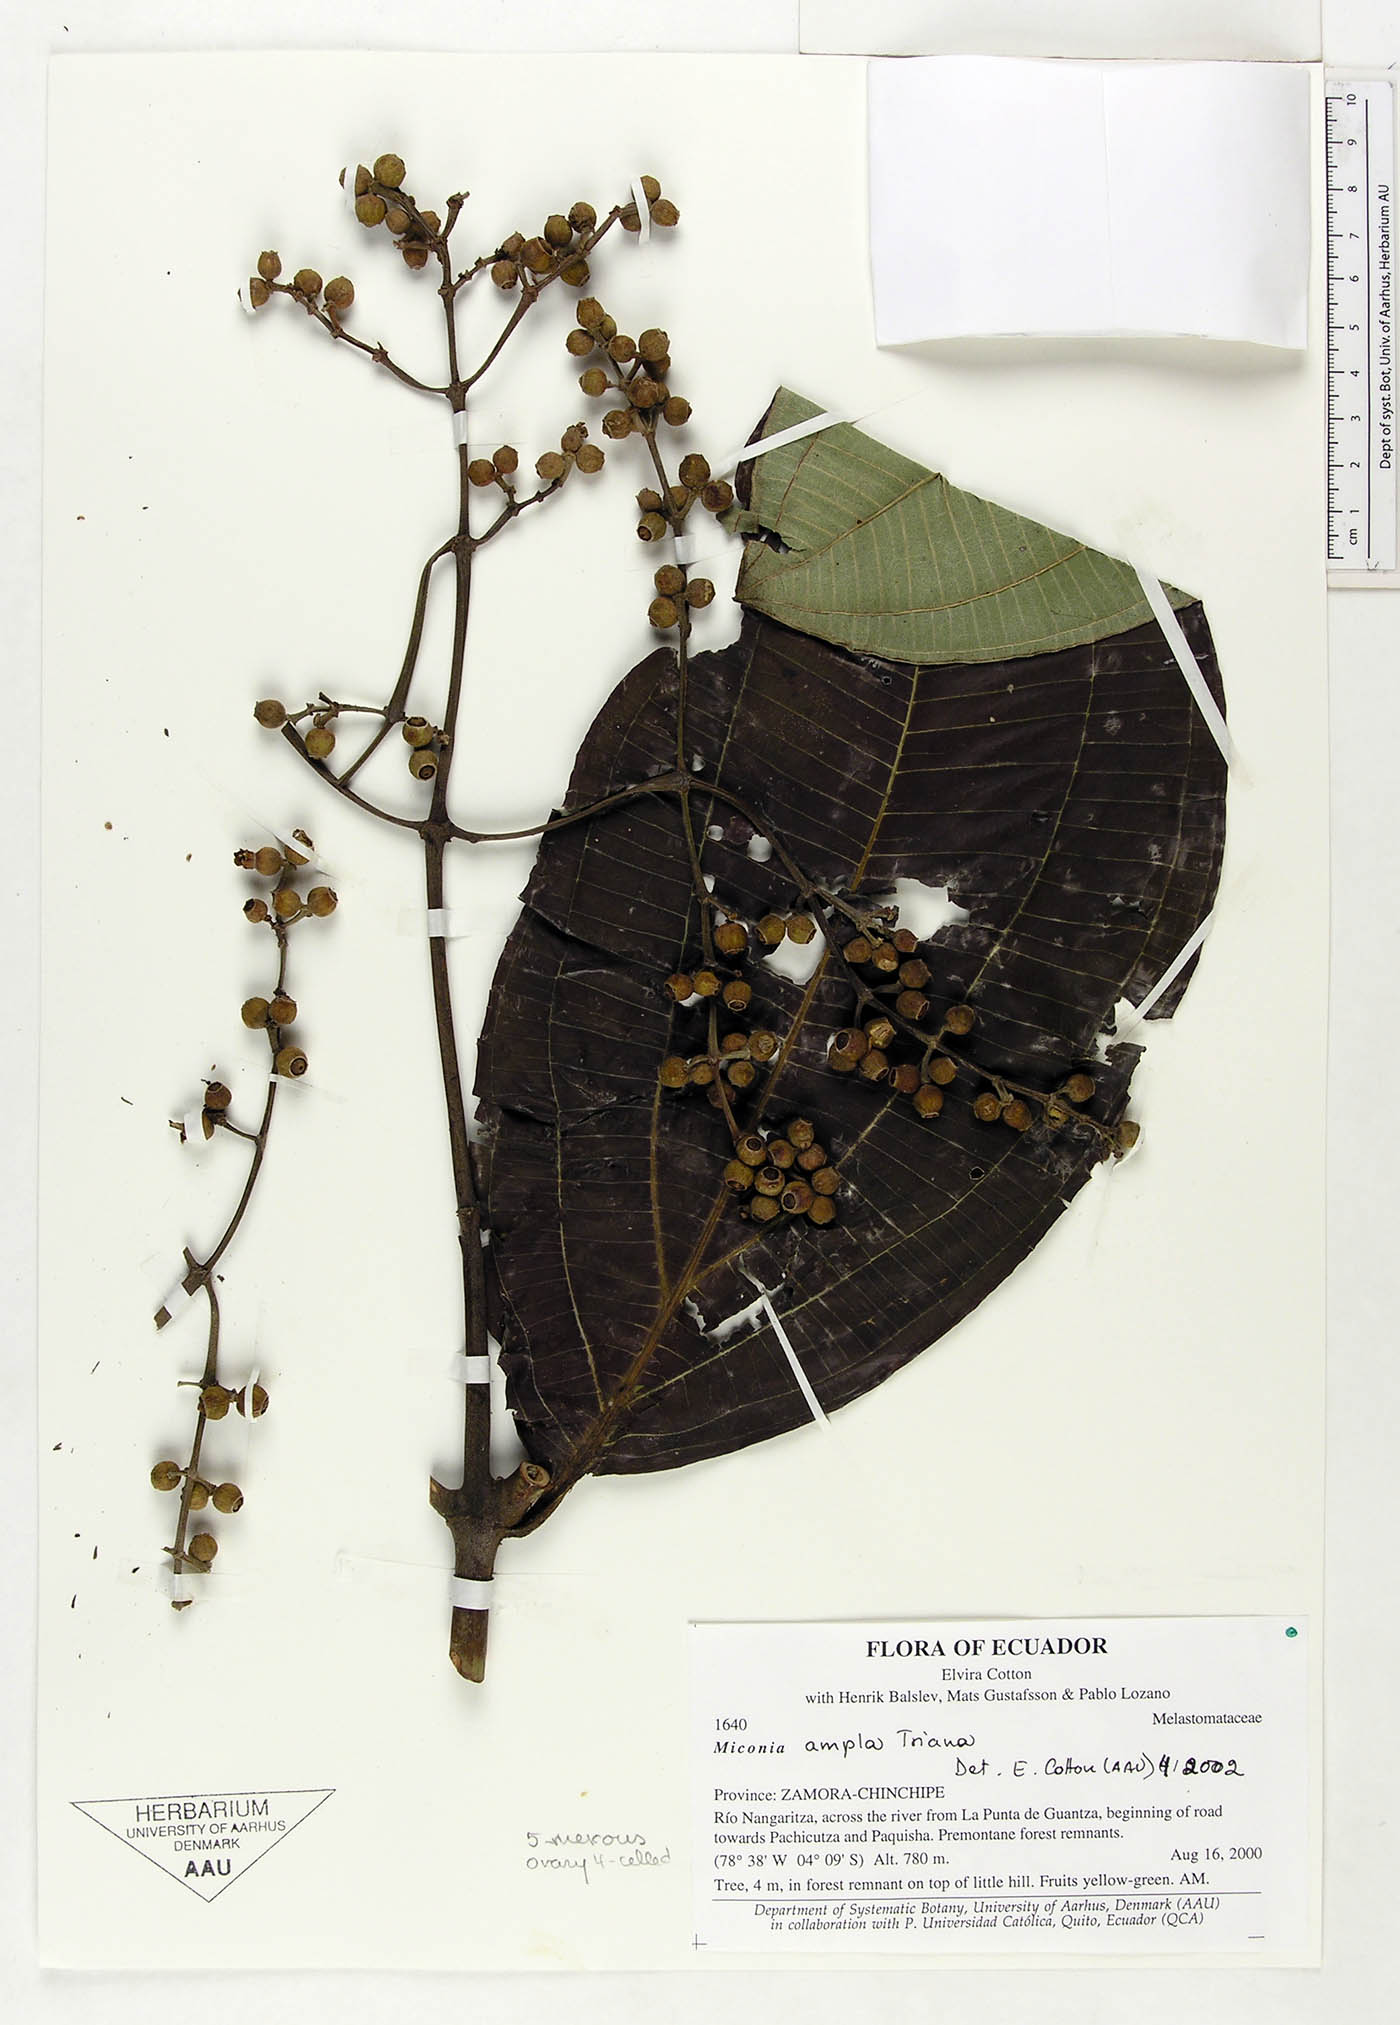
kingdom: Plantae
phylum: Tracheophyta
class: Magnoliopsida
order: Myrtales
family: Melastomataceae
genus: Miconia
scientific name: Miconia ampla
